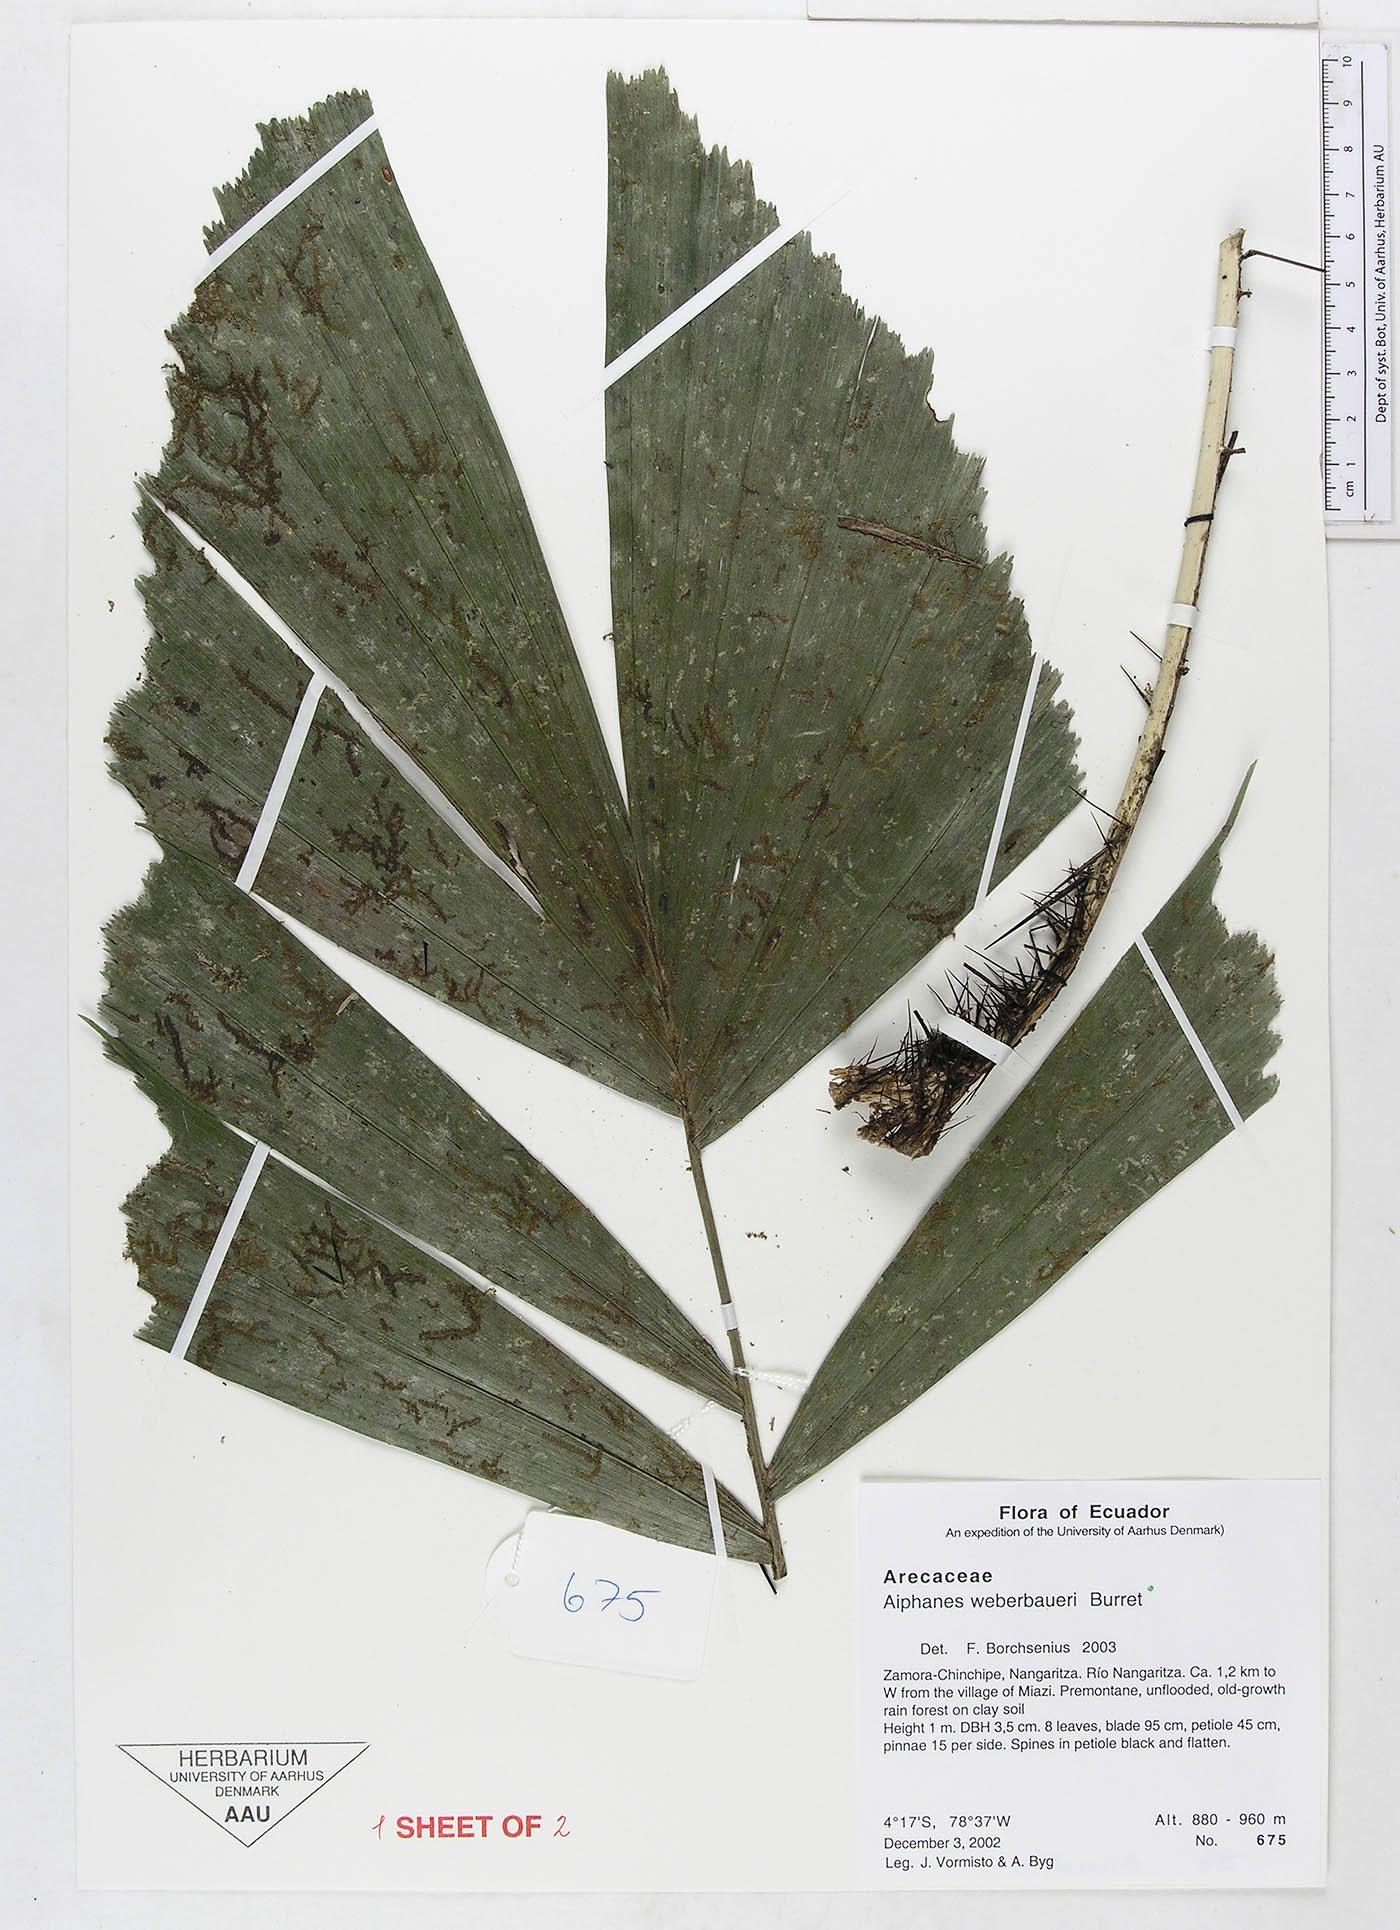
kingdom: Plantae
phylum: Tracheophyta
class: Liliopsida
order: Arecales
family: Arecaceae
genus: Aiphanes
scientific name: Aiphanes weberbaueri
